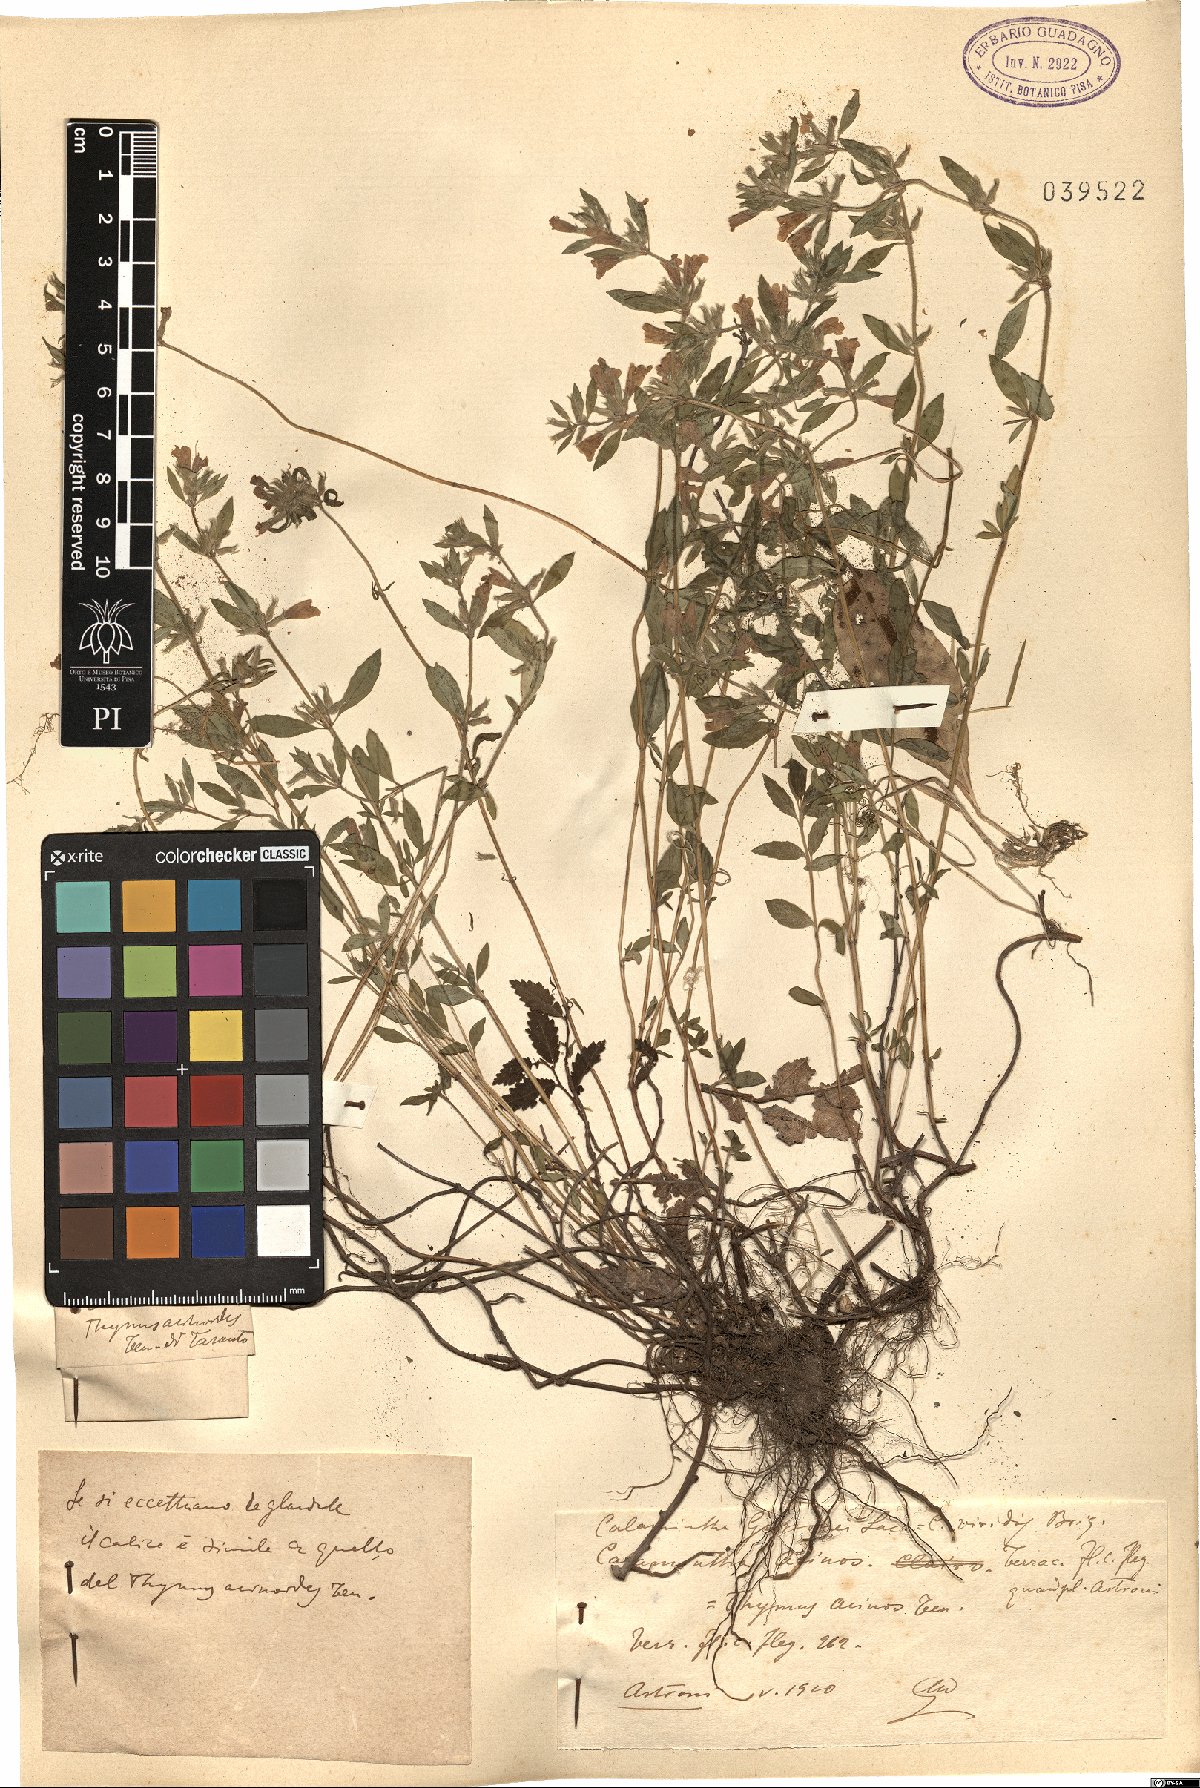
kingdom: Plantae
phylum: Tracheophyta
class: Magnoliopsida
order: Lamiales
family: Lamiaceae
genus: Clinopodium
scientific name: Clinopodium acinos
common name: Basil thyme
